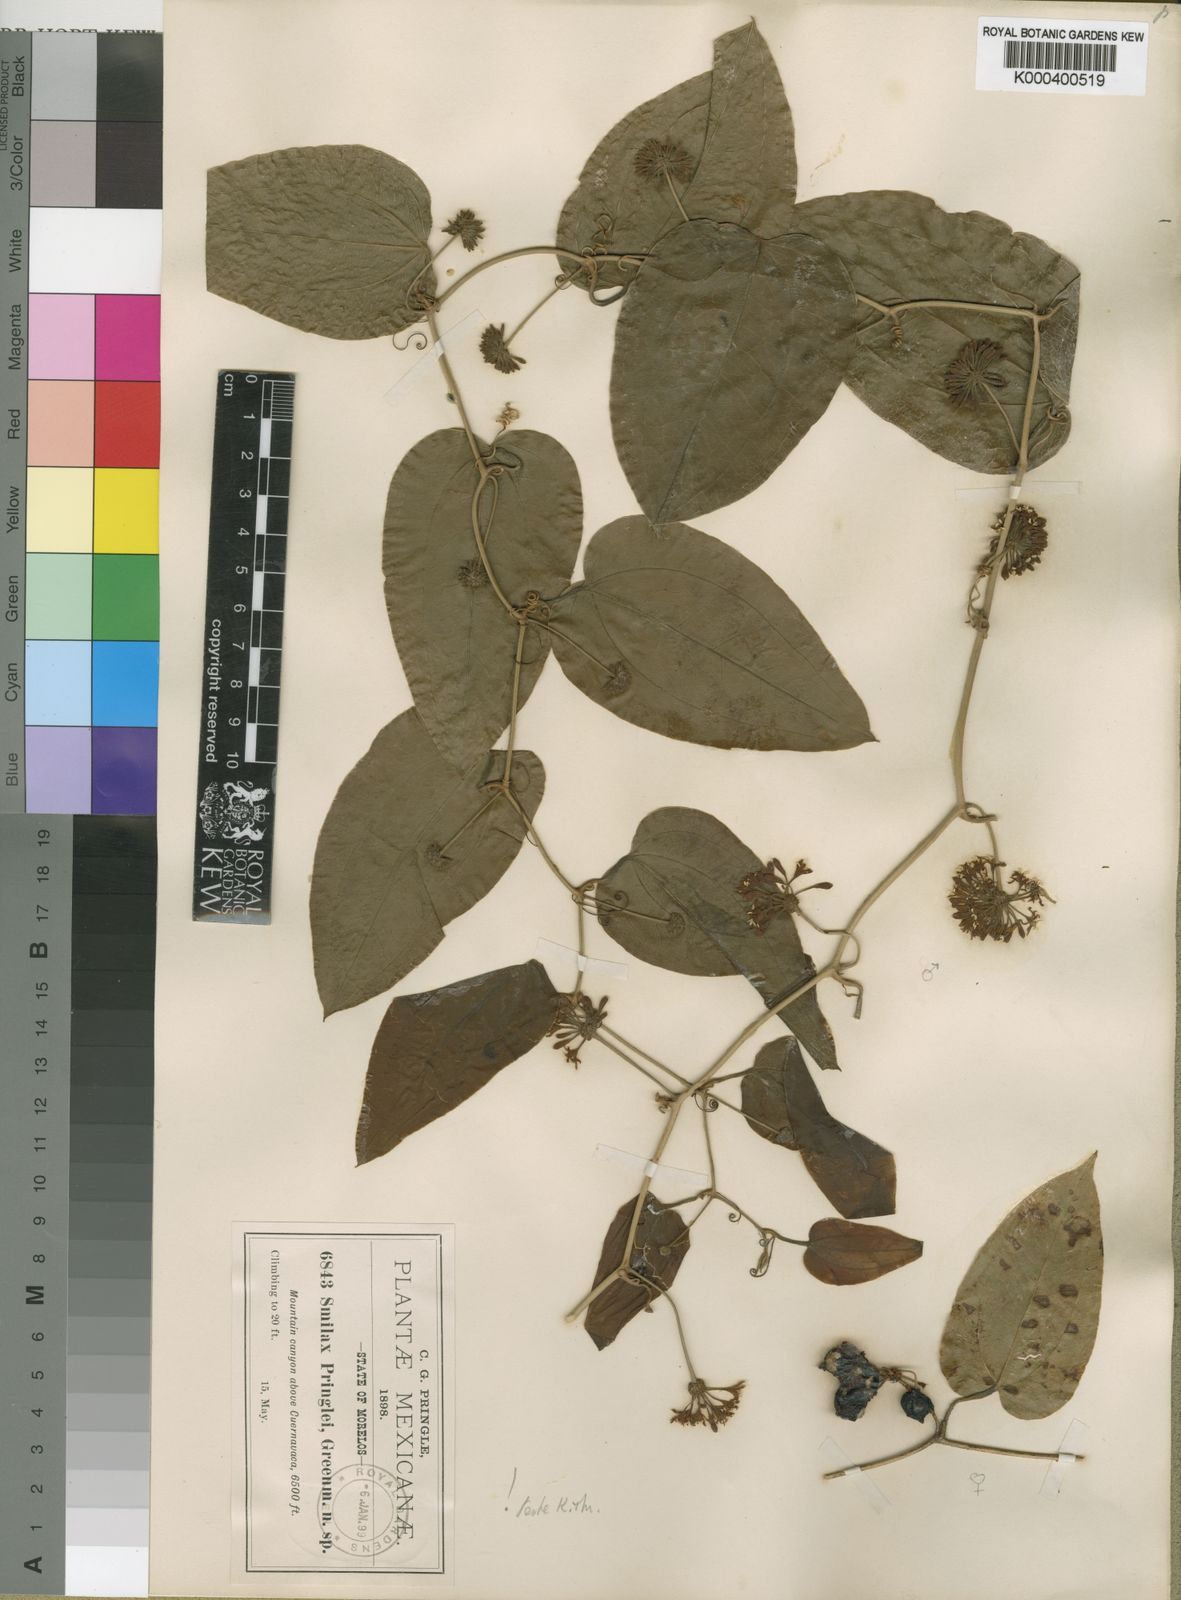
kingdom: Plantae
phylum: Tracheophyta
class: Liliopsida
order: Liliales
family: Smilacaceae
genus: Smilax
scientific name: Smilax mollis
